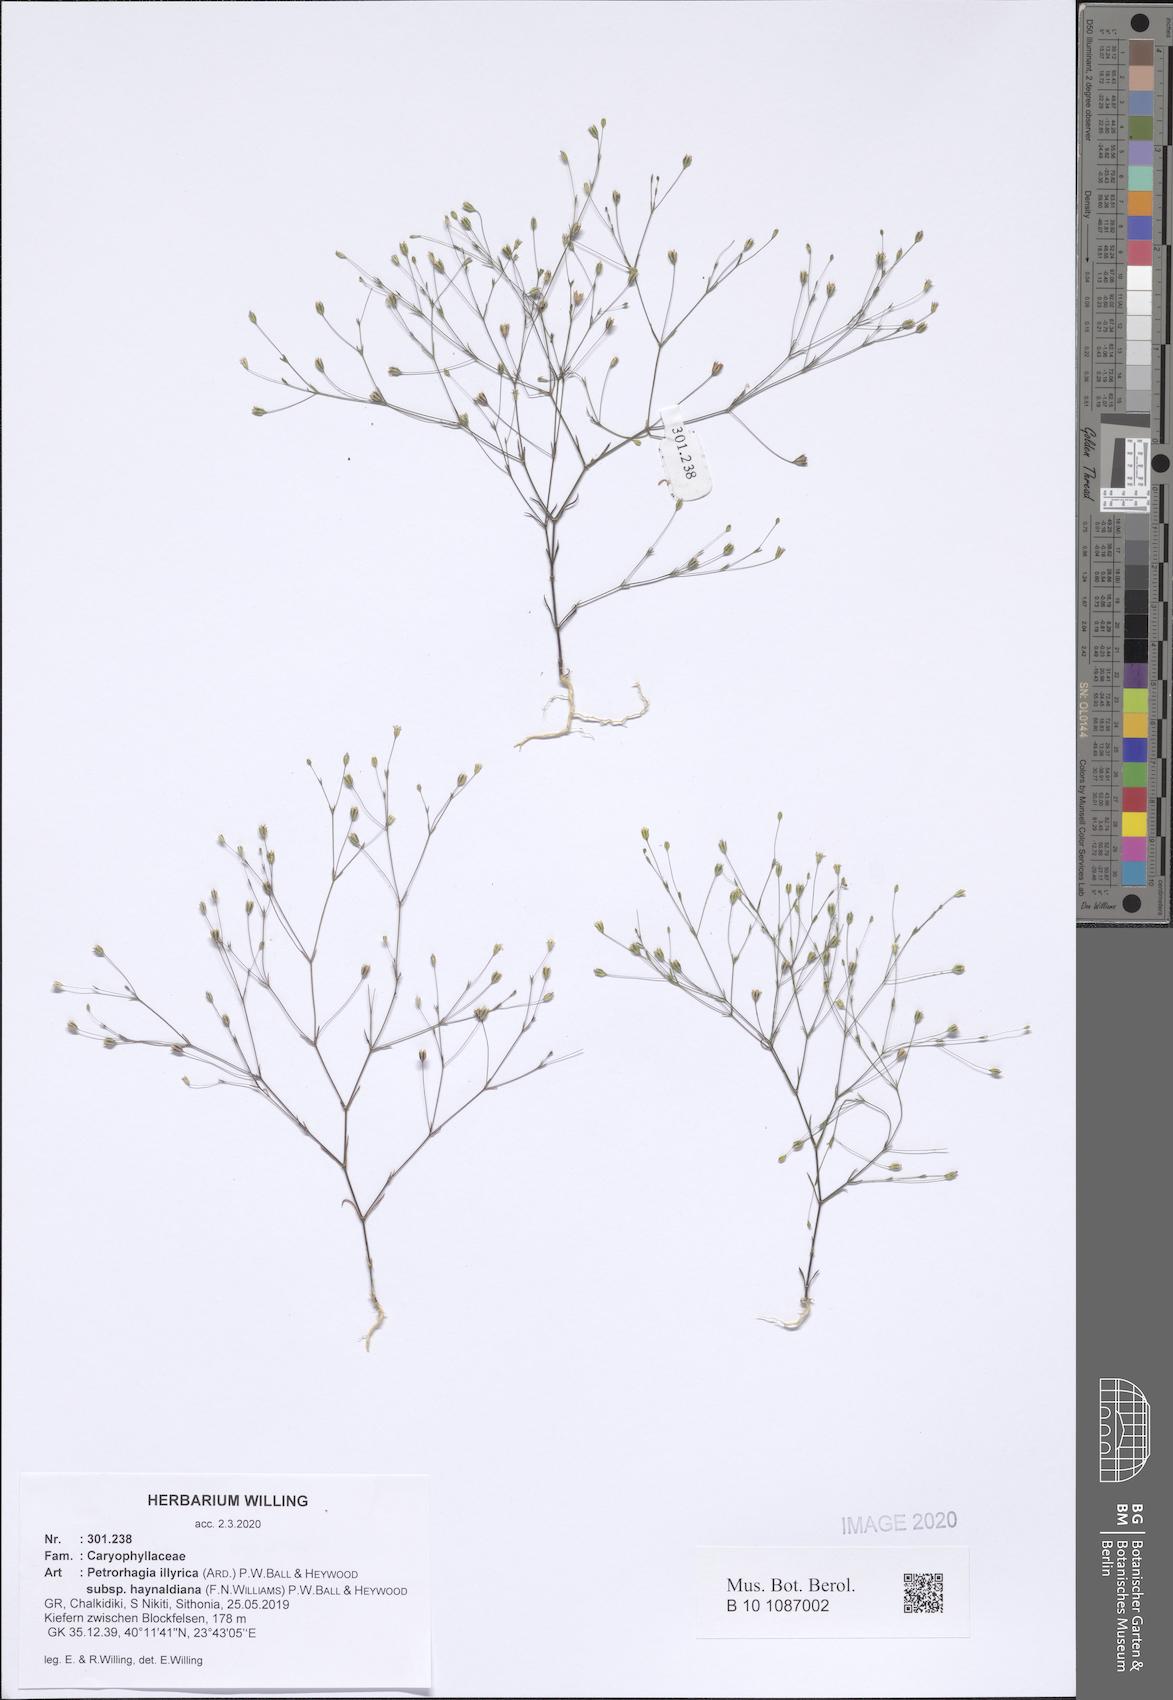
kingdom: Plantae
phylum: Tracheophyta
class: Magnoliopsida
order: Caryophyllales
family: Caryophyllaceae
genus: Dianthus
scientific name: Dianthus illyricus
